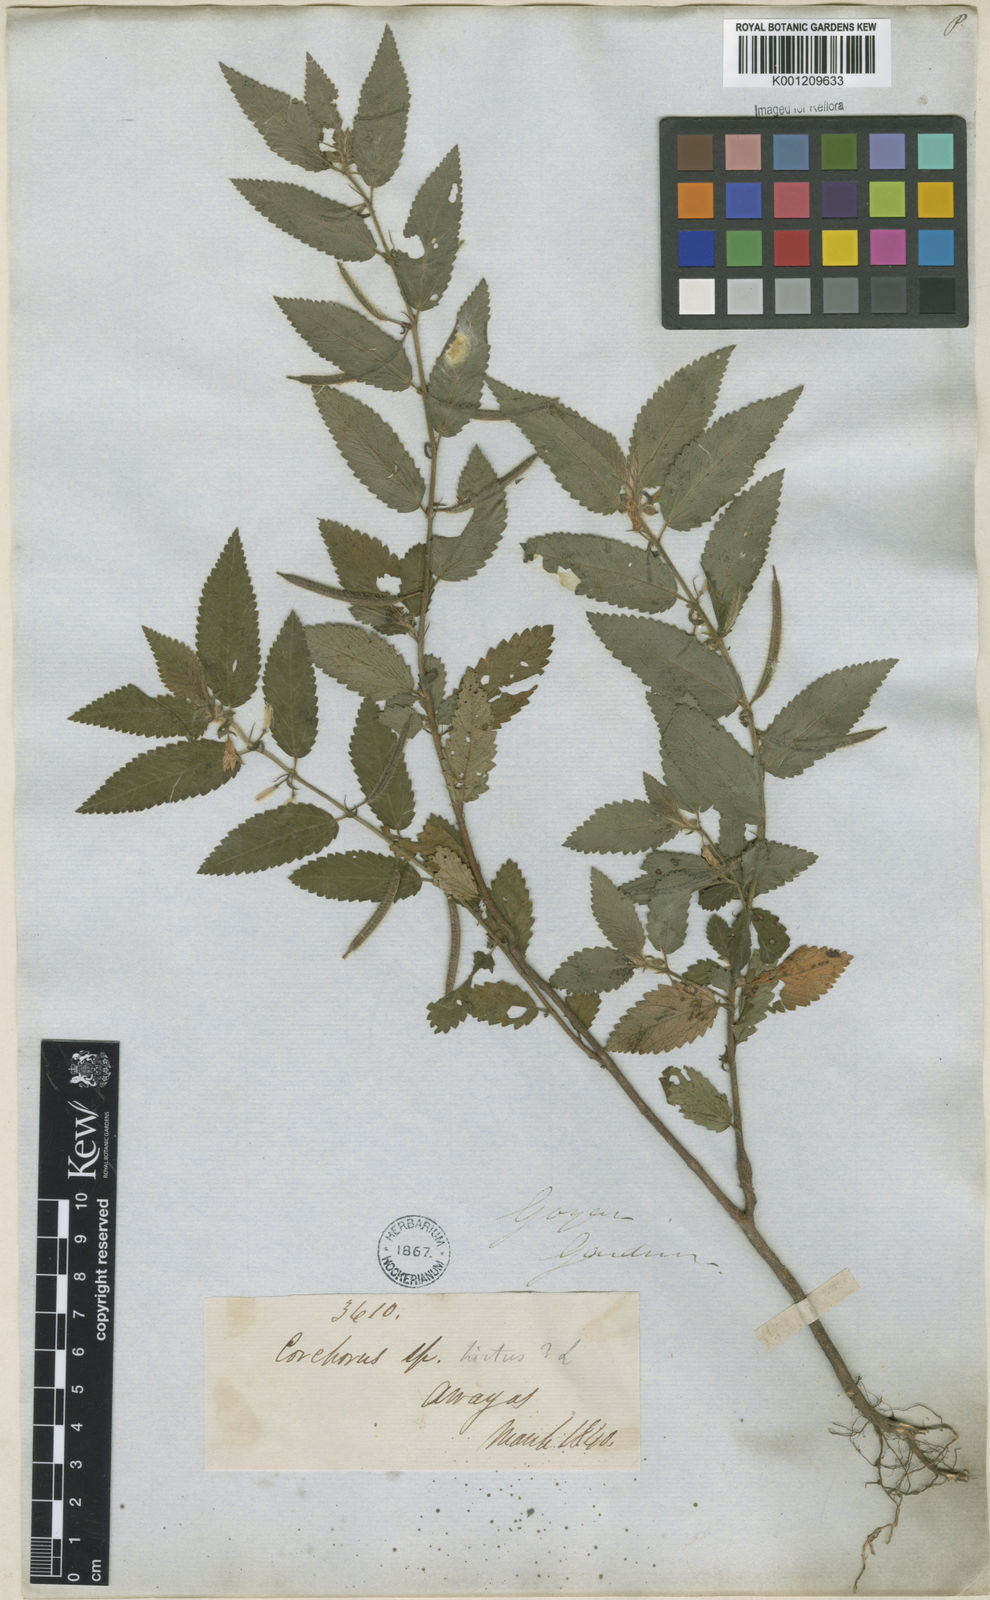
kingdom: Plantae
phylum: Tracheophyta
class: Magnoliopsida
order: Malvales
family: Malvaceae
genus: Corchorus
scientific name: Corchorus hirtus
